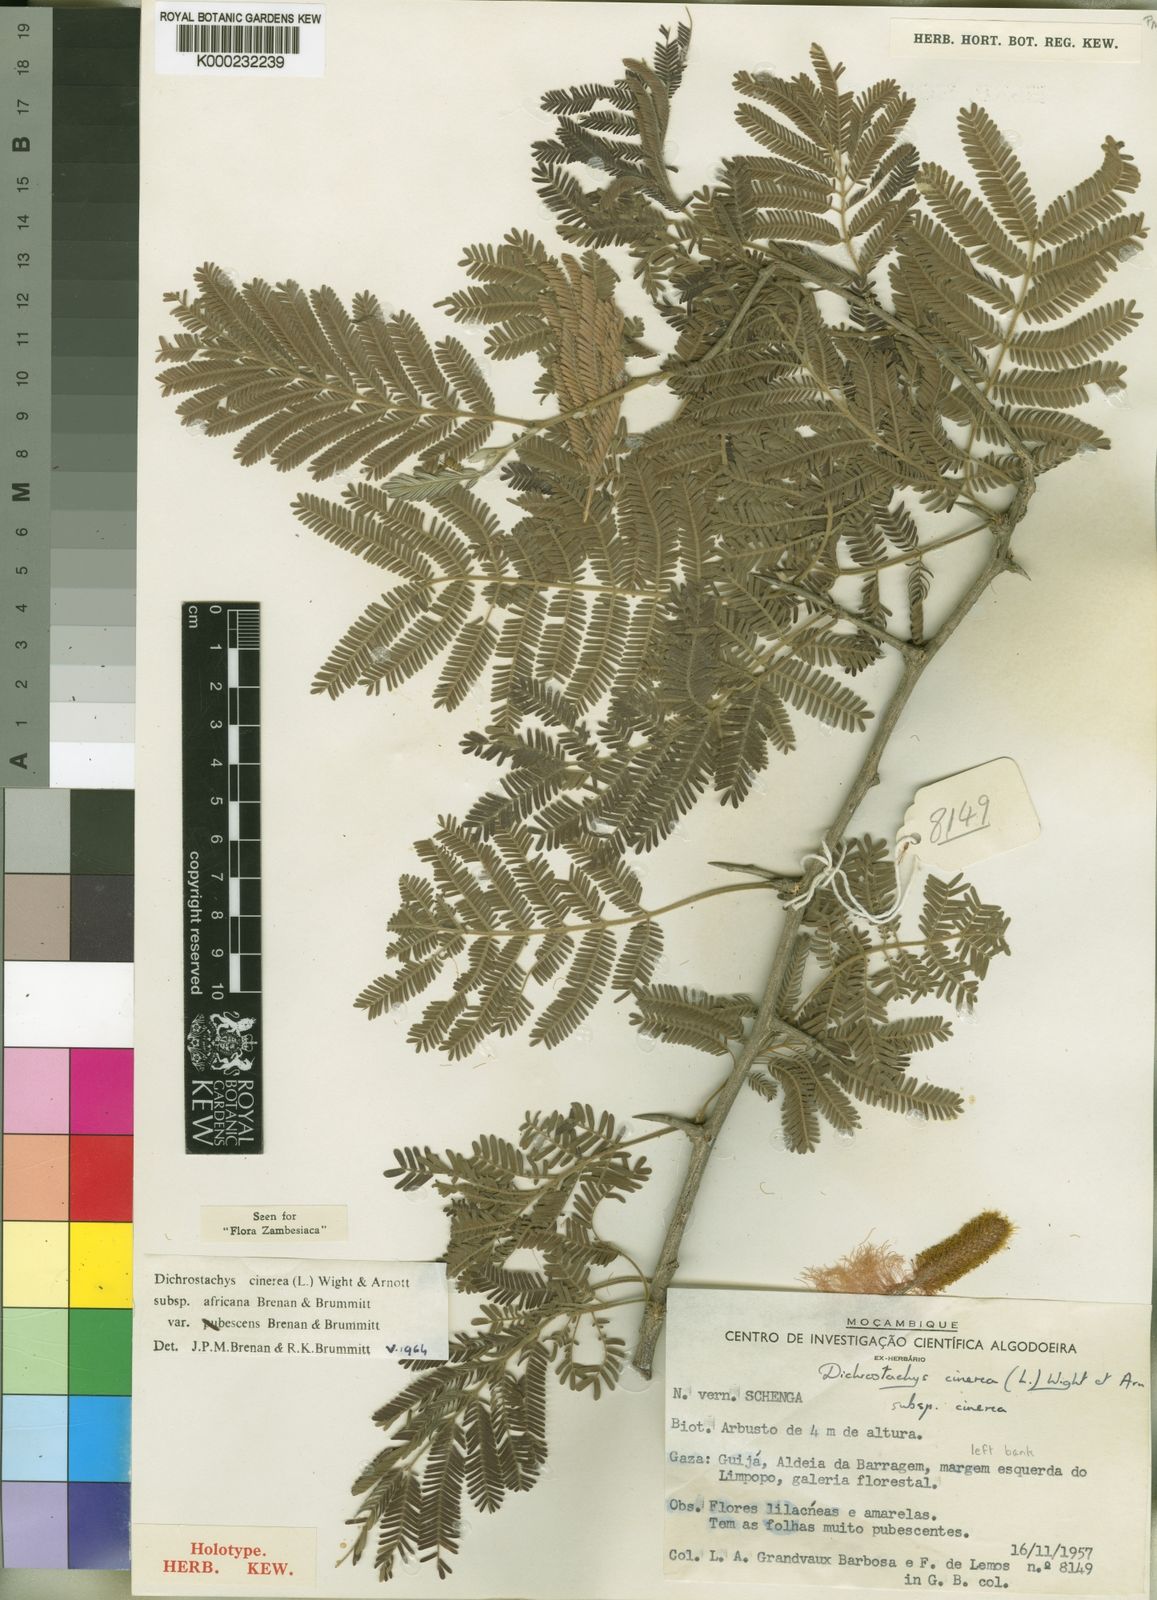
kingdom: Plantae
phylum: Tracheophyta
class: Magnoliopsida
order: Fabales
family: Fabaceae
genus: Dichrostachys
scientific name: Dichrostachys cinerea
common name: Sicklebush
